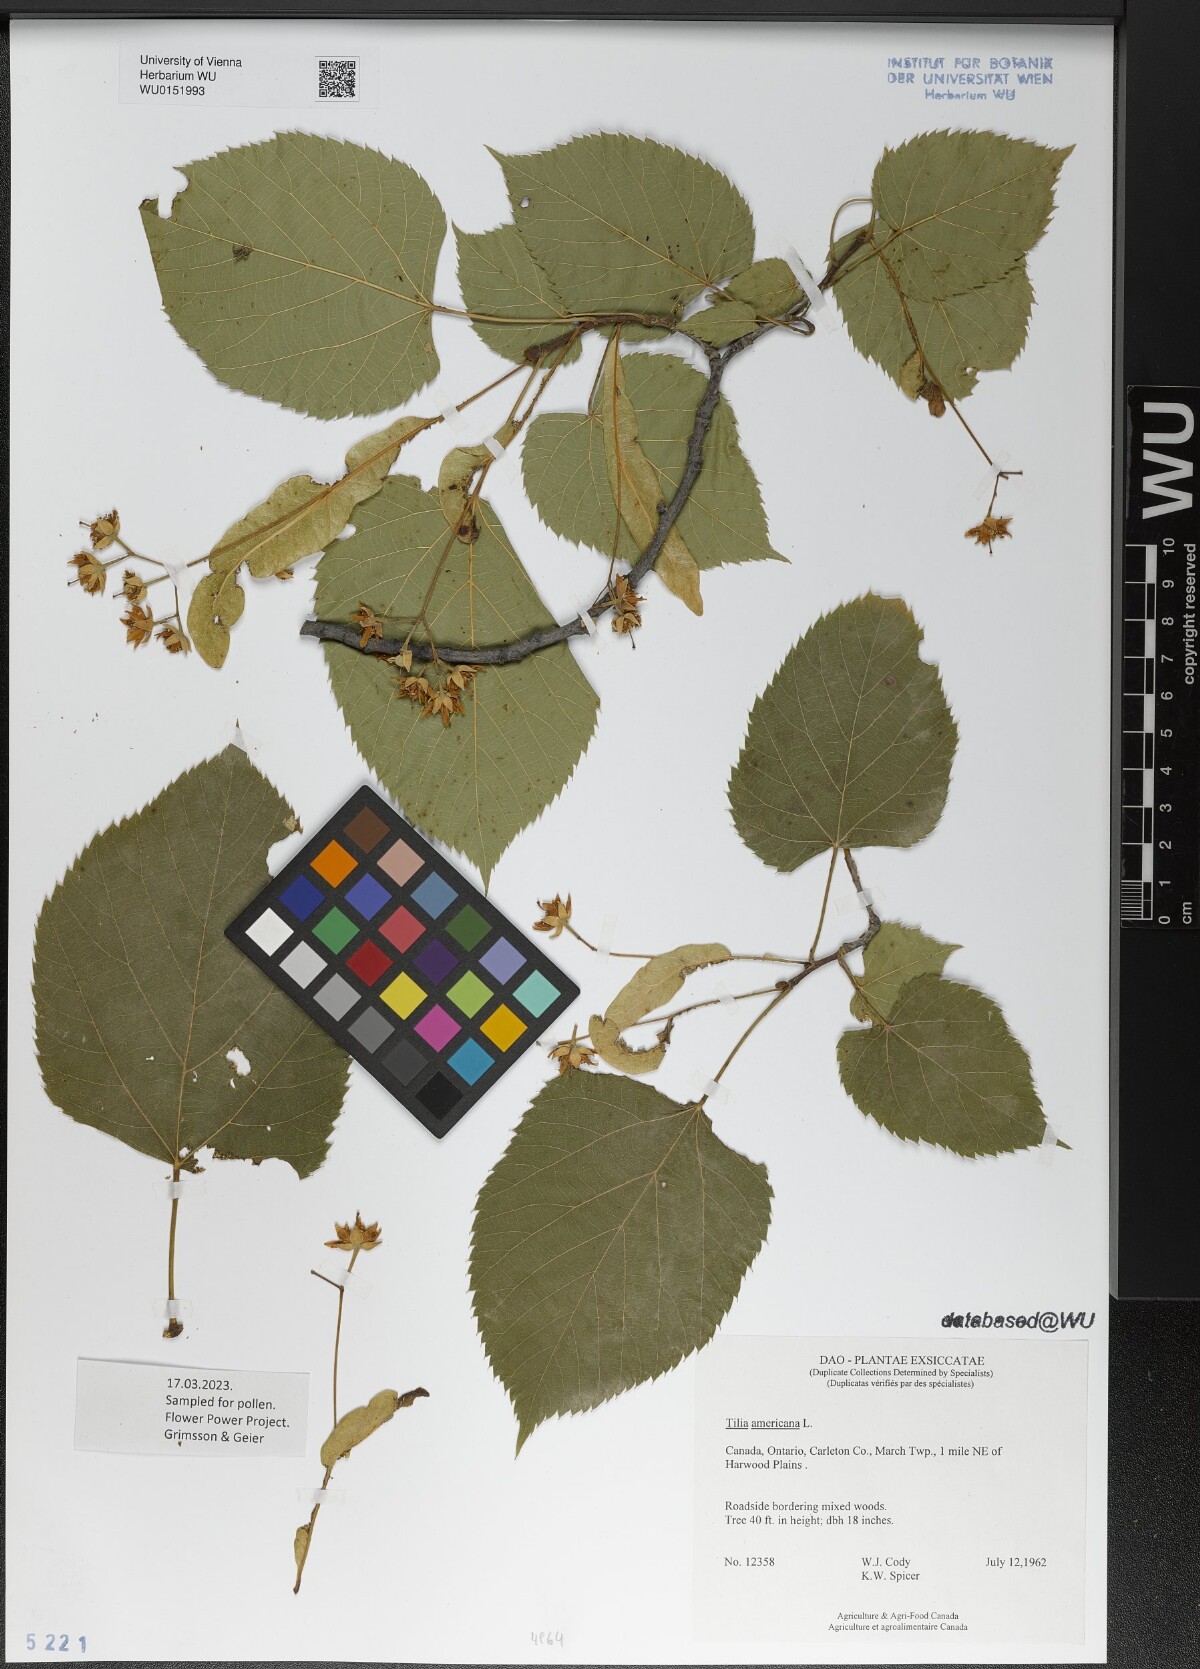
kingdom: Plantae
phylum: Tracheophyta
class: Magnoliopsida
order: Malvales
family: Malvaceae
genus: Tilia
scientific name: Tilia americana
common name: Basswood
